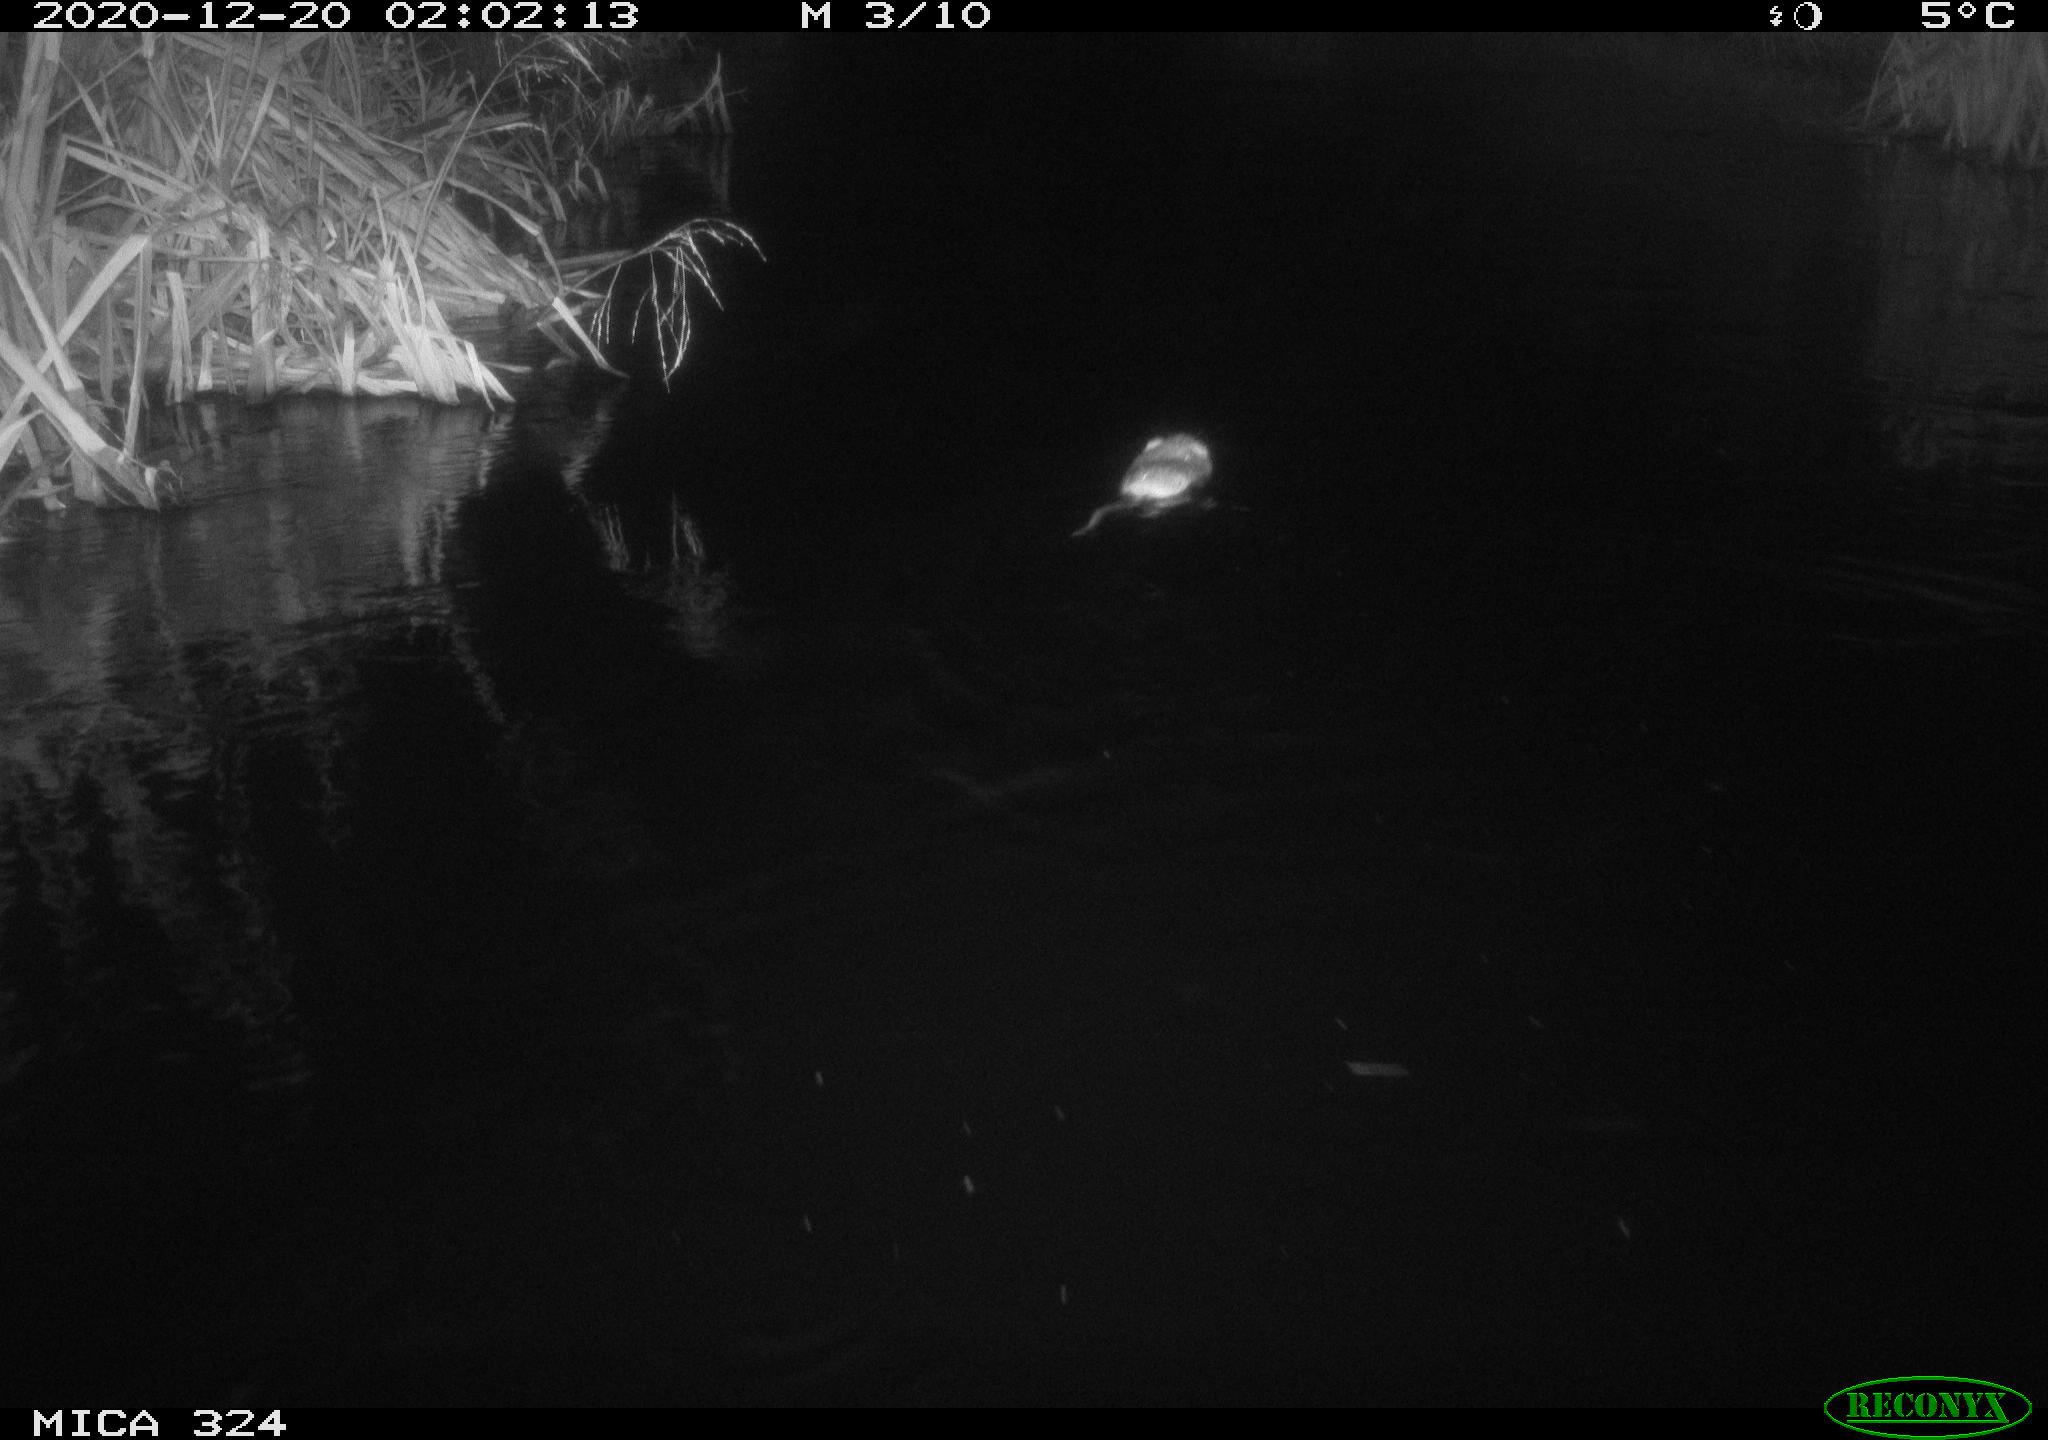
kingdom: Animalia
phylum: Chordata
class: Mammalia
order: Rodentia
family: Cricetidae
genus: Ondatra
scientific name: Ondatra zibethicus
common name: Muskrat
